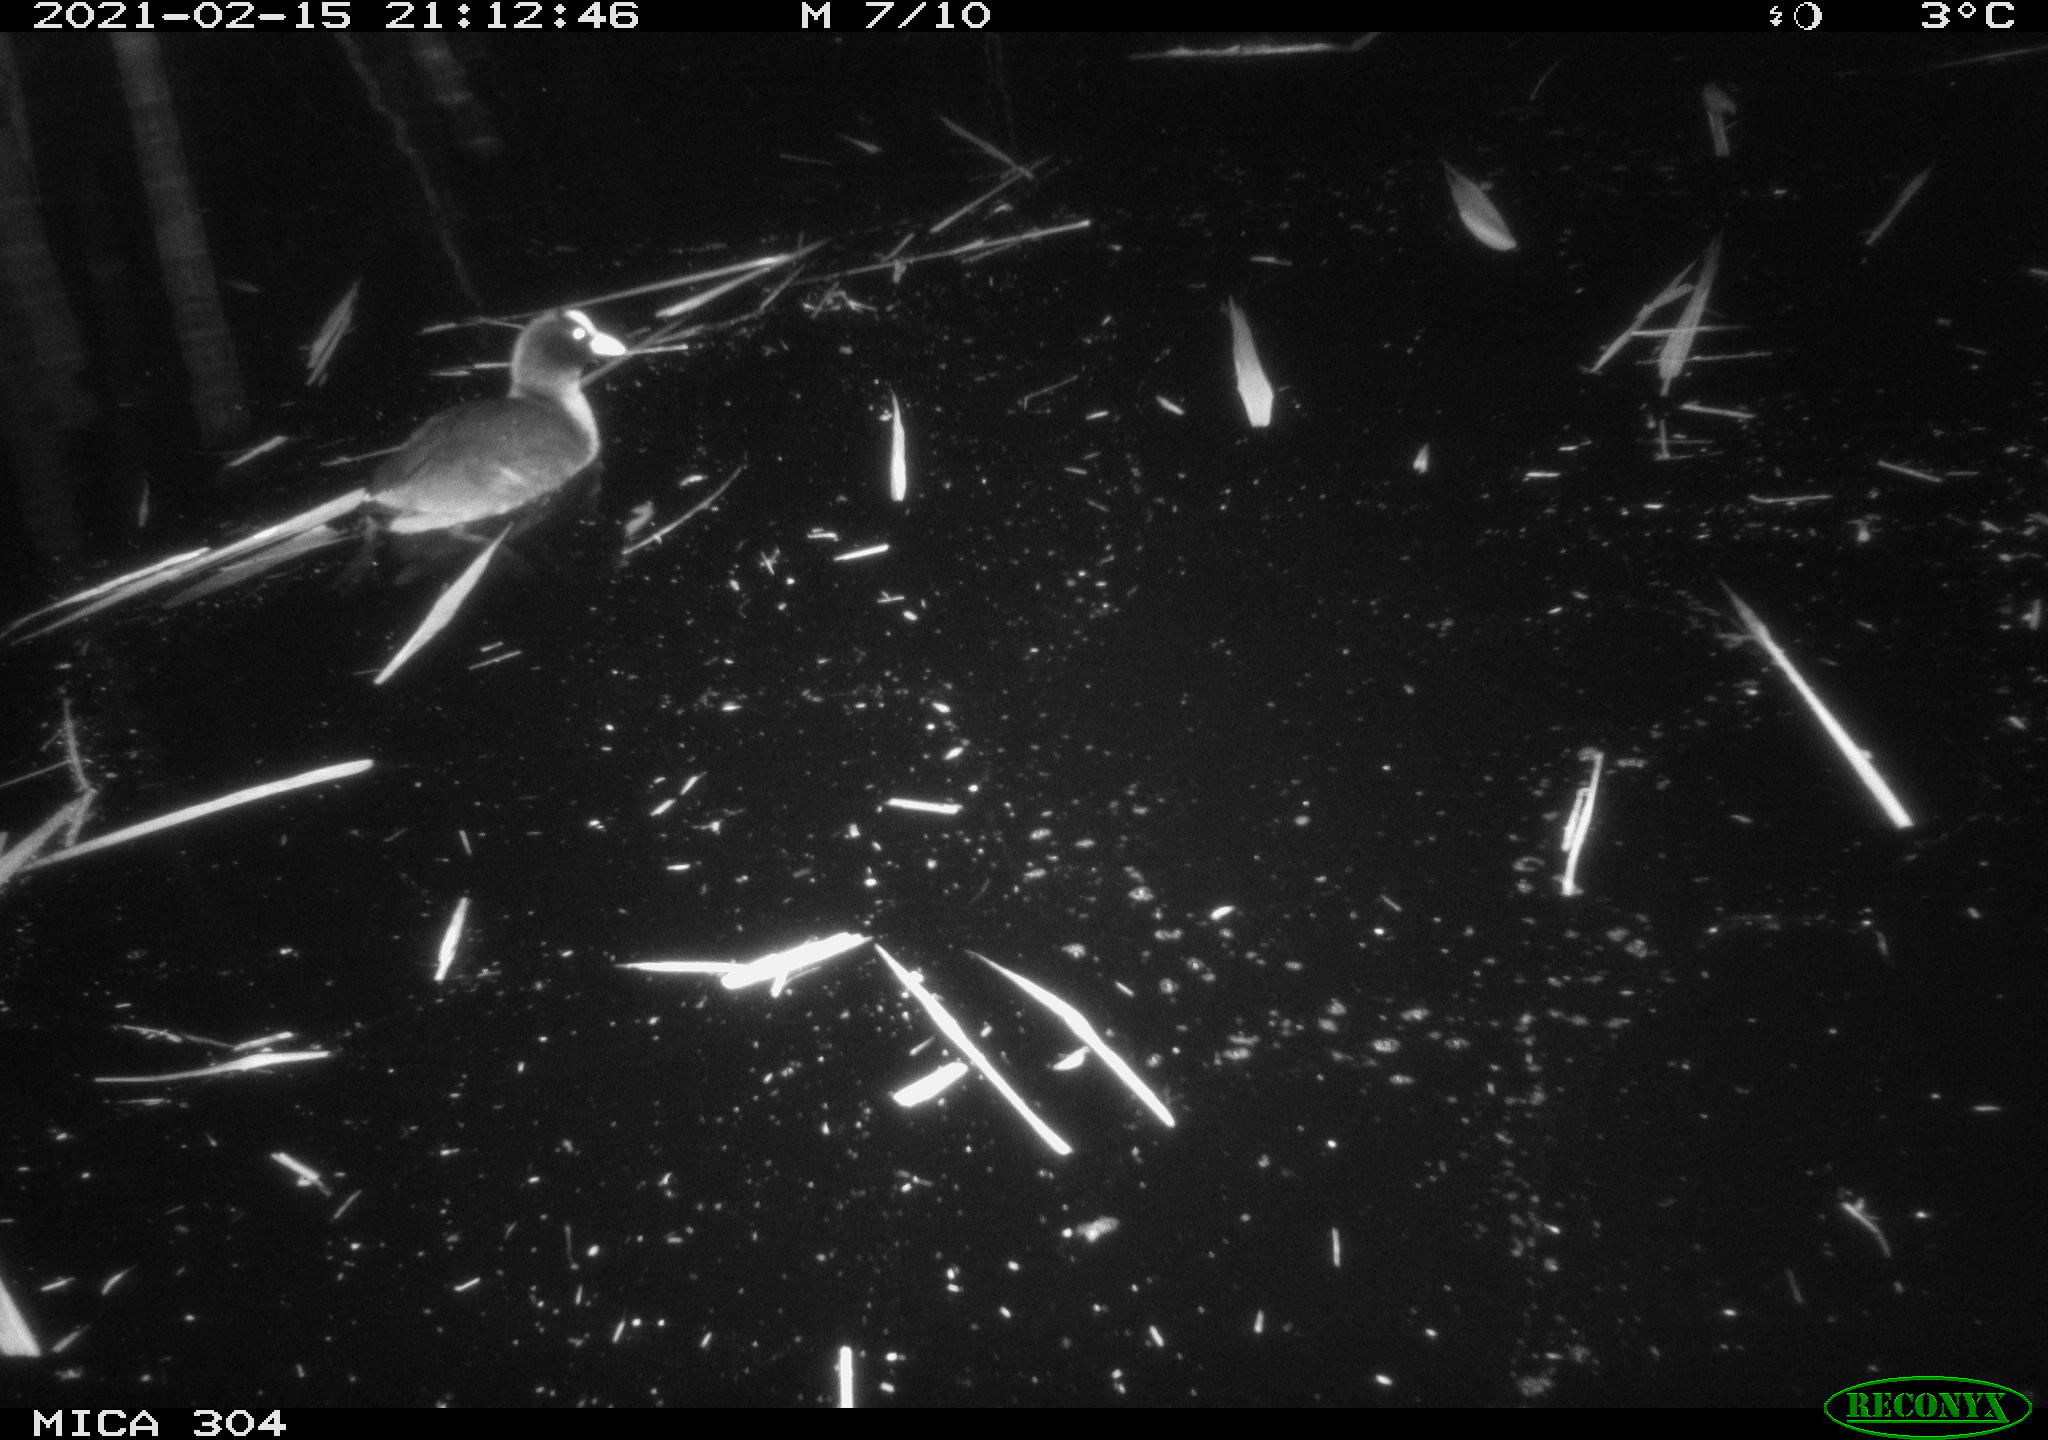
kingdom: Animalia
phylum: Chordata
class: Aves
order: Gruiformes
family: Rallidae
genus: Fulica
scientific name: Fulica atra
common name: Eurasian coot
